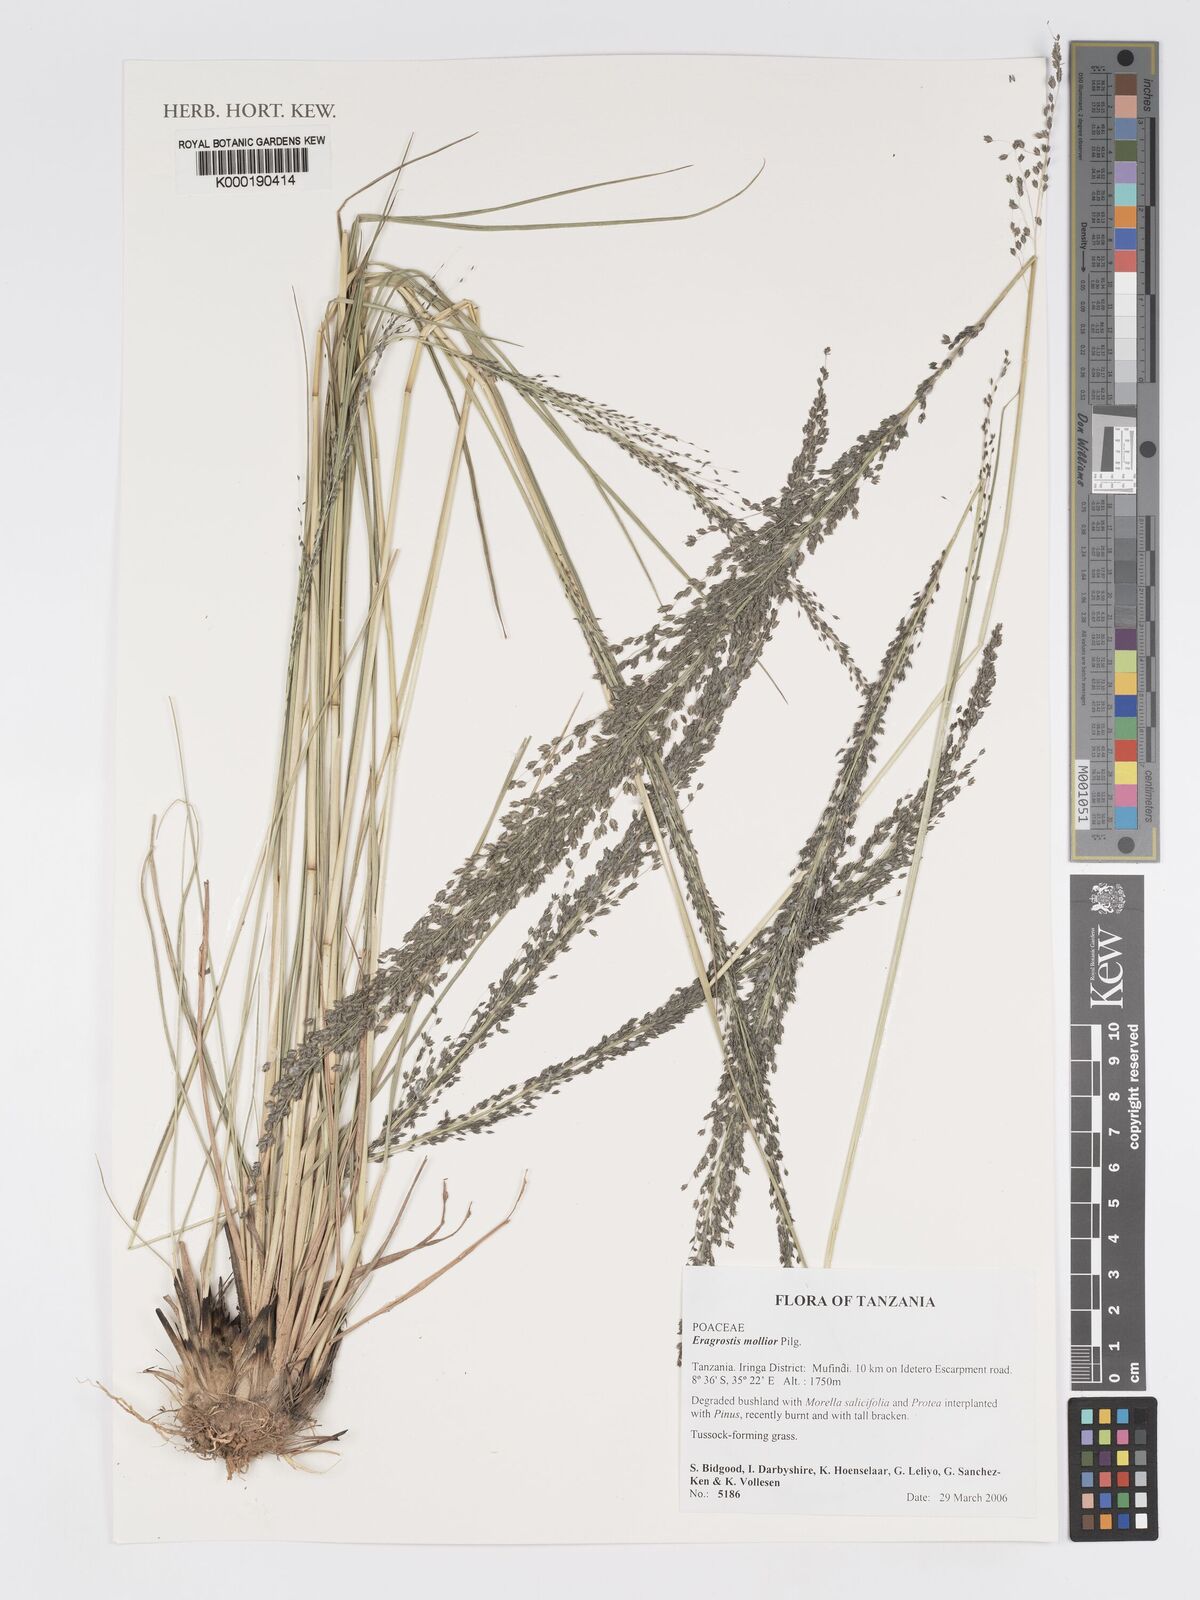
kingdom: Plantae
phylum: Tracheophyta
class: Liliopsida
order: Poales
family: Poaceae
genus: Eragrostis
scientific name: Eragrostis mollior
